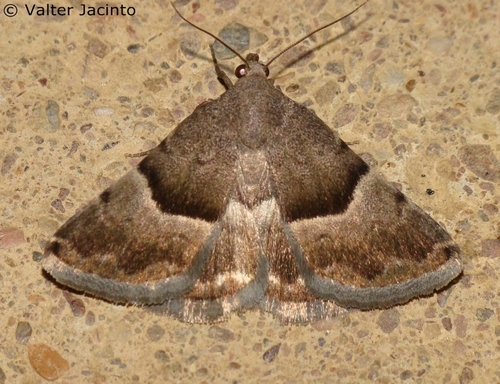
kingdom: Animalia
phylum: Arthropoda
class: Insecta
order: Lepidoptera
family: Noctuidae
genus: Odice
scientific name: Odice
